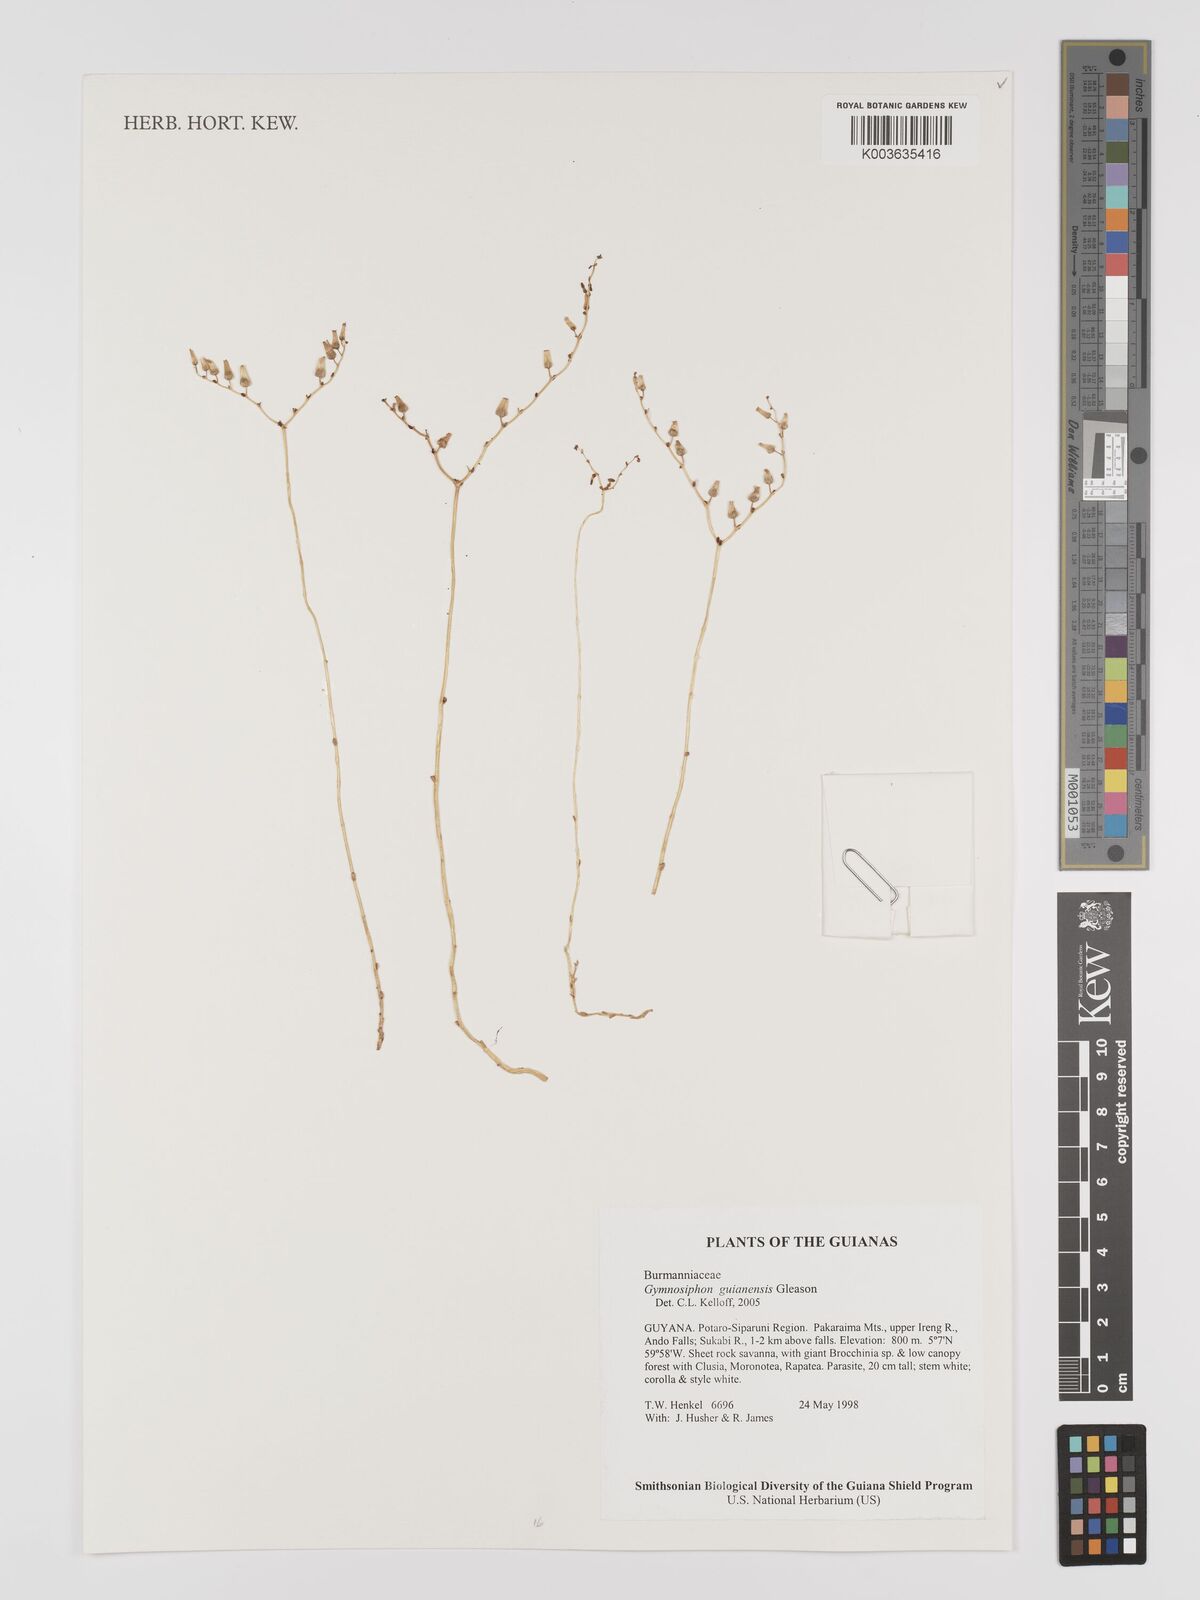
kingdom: Plantae
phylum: Tracheophyta
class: Liliopsida
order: Dioscoreales
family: Burmanniaceae
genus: Gymnosiphon
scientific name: Gymnosiphon guianensis
